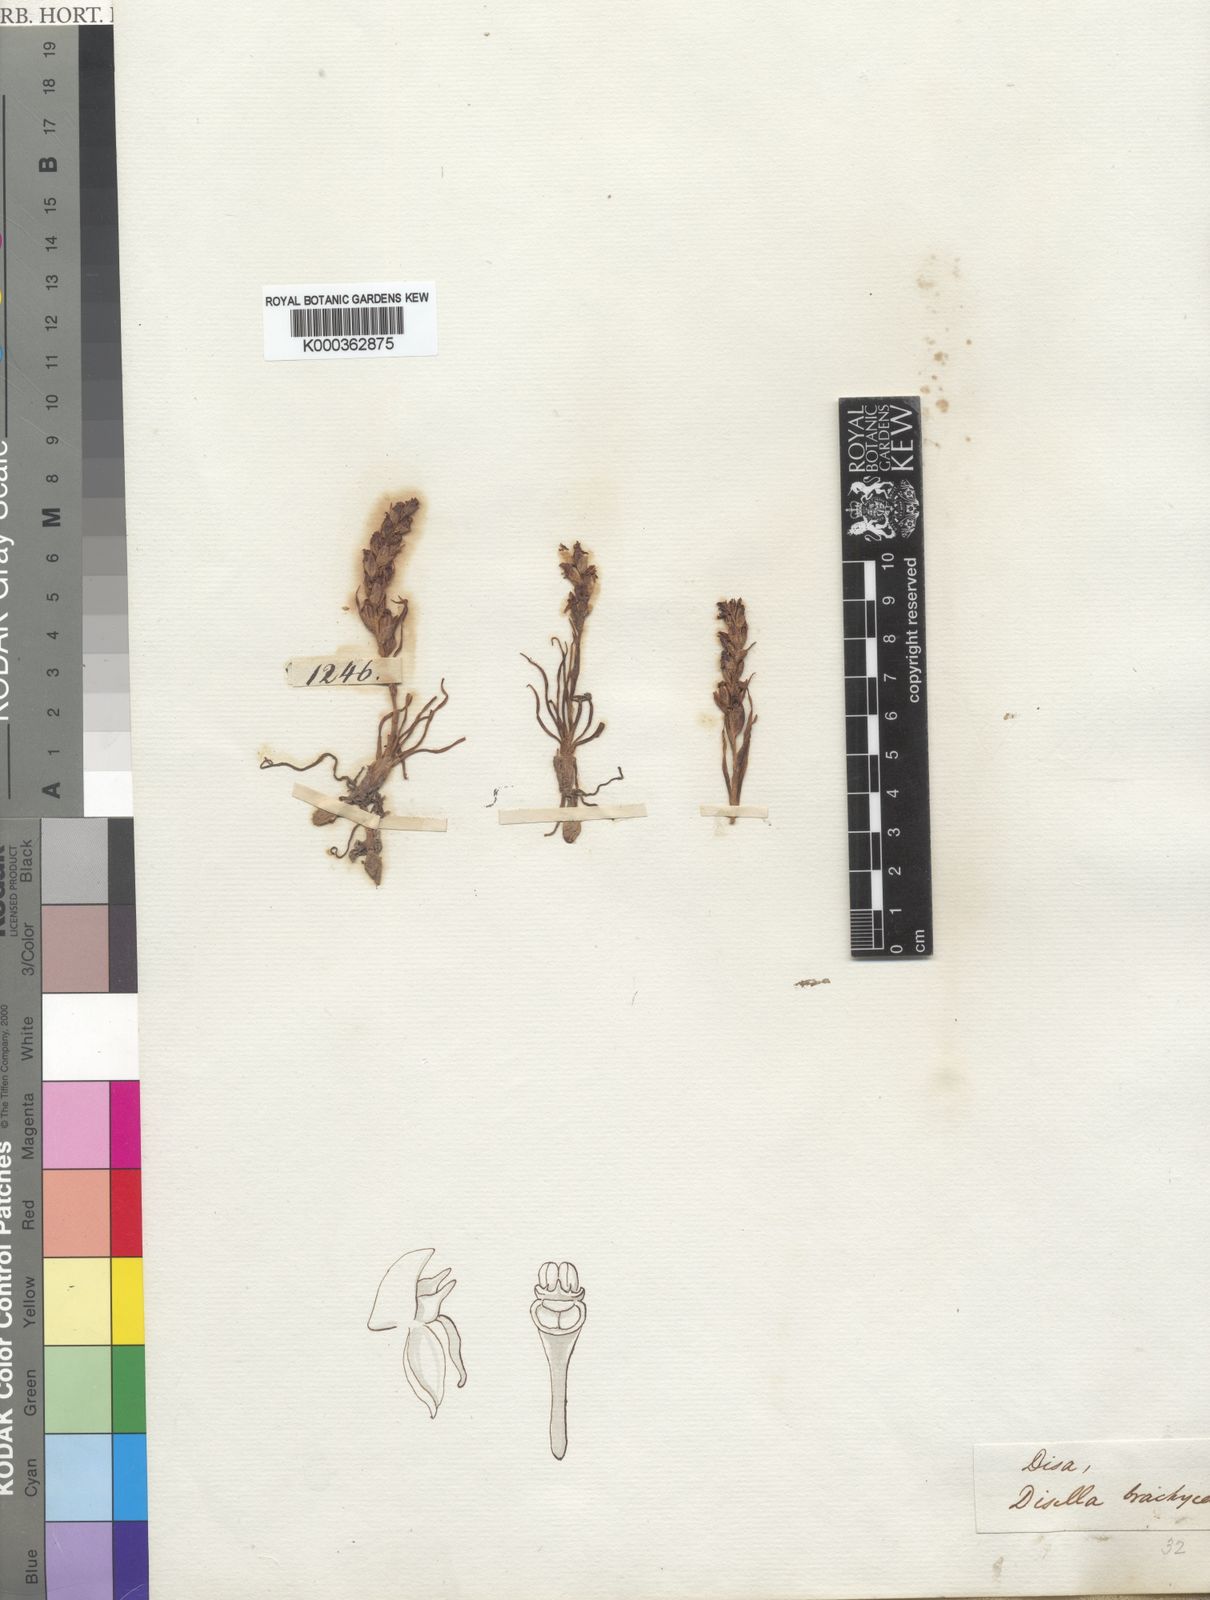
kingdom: Plantae
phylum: Tracheophyta
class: Liliopsida
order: Asparagales
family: Orchidaceae
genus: Disa
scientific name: Disa brachyceras
